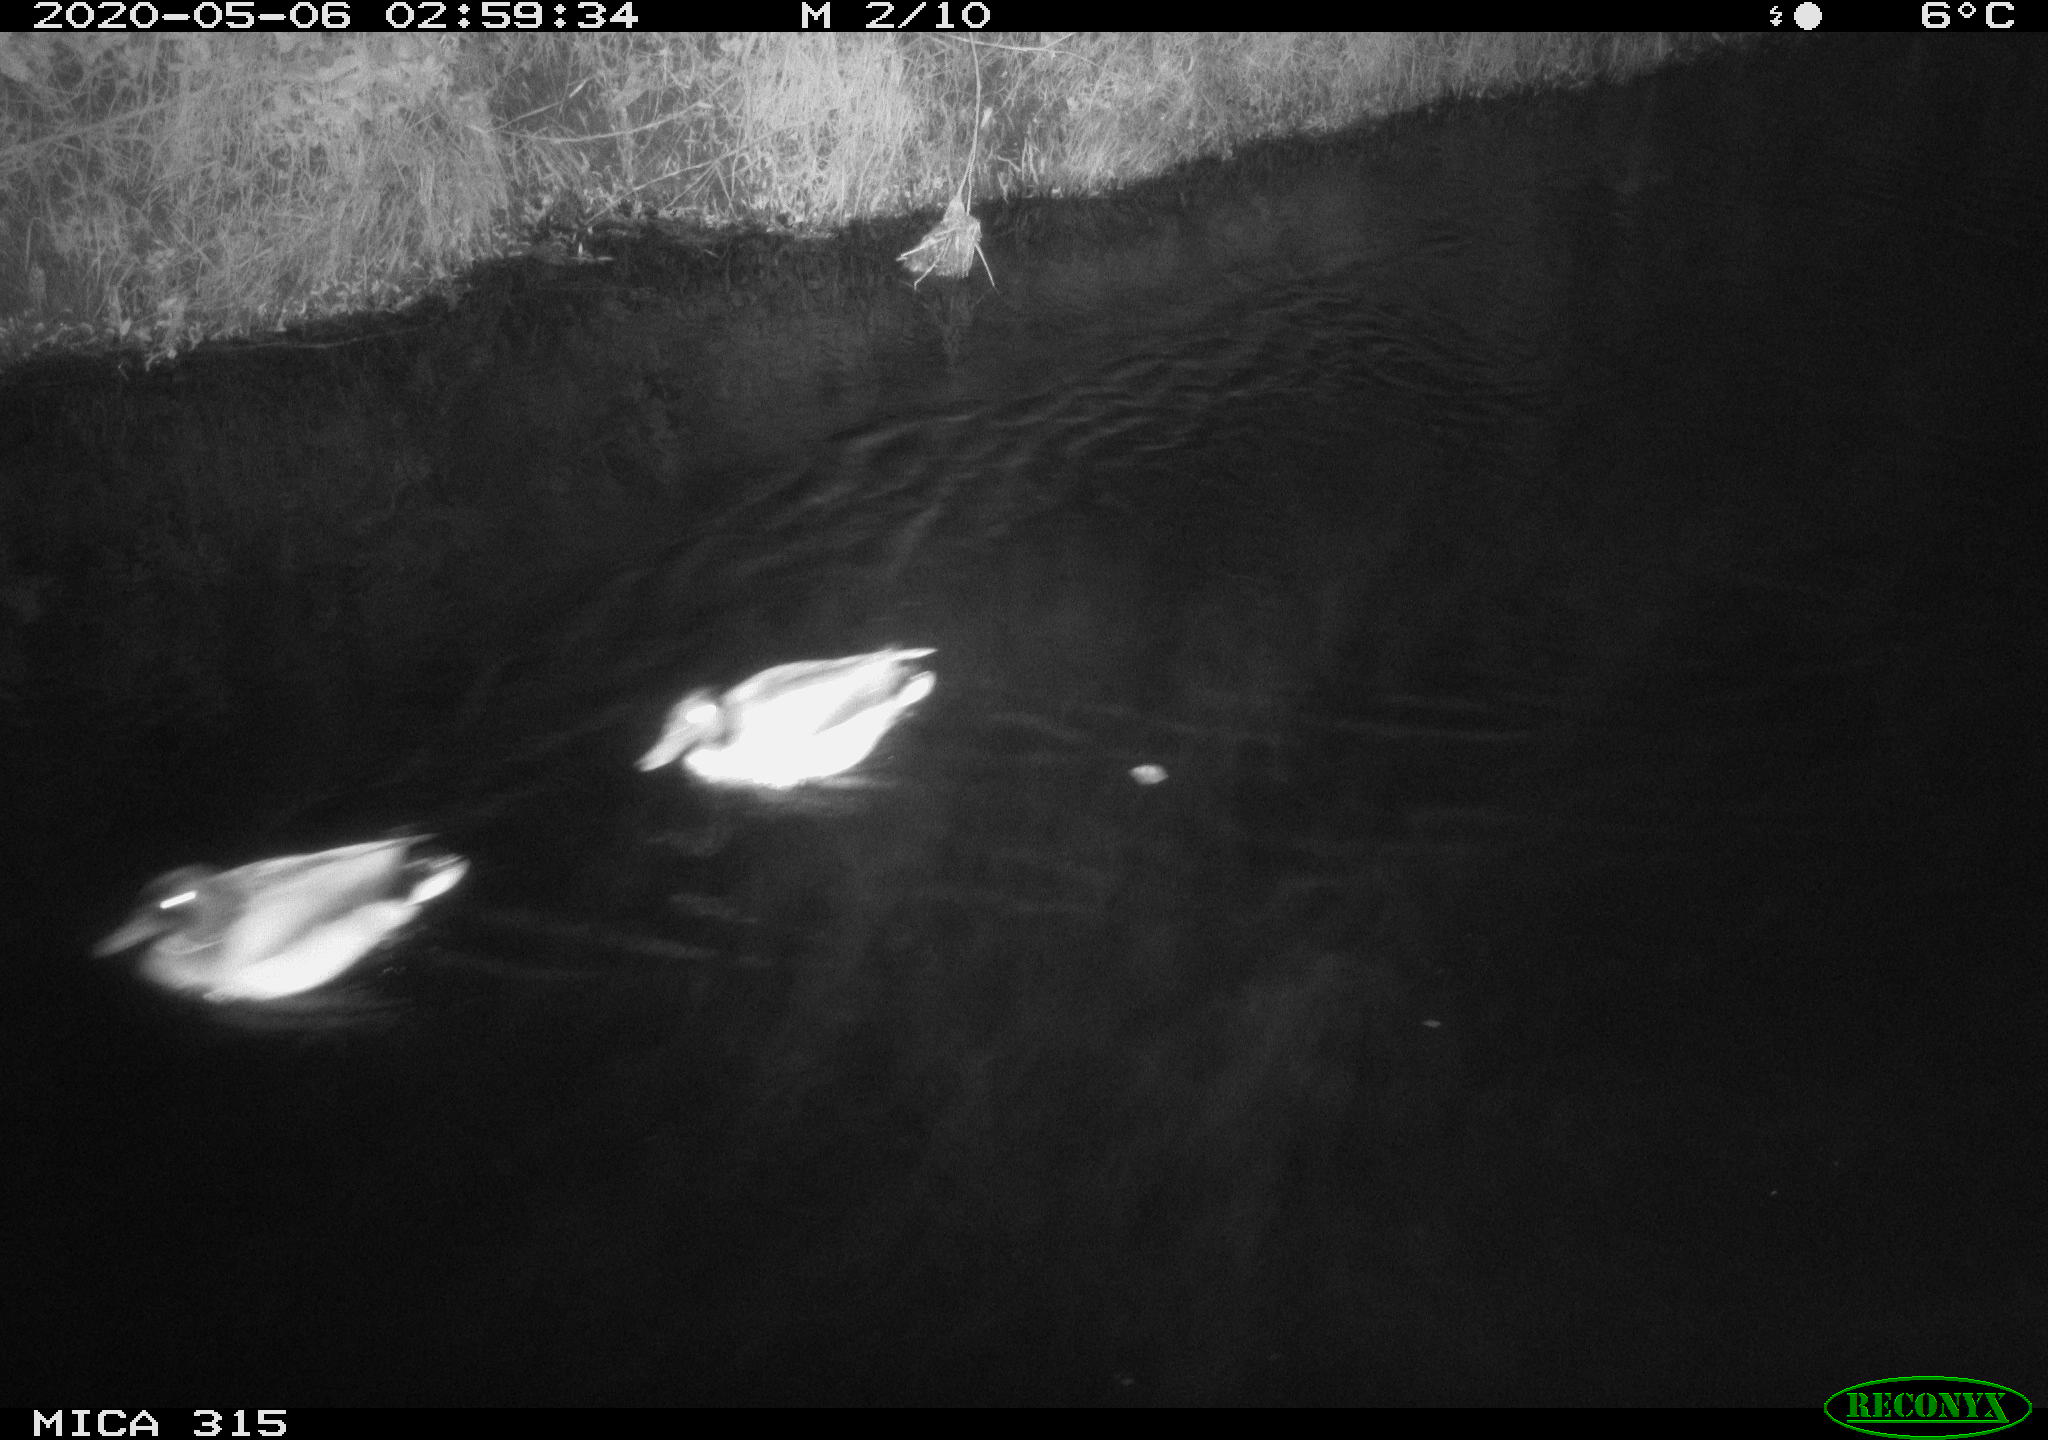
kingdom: Animalia
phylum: Chordata
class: Aves
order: Anseriformes
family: Anatidae
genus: Anas
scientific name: Anas platyrhynchos
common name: Mallard
